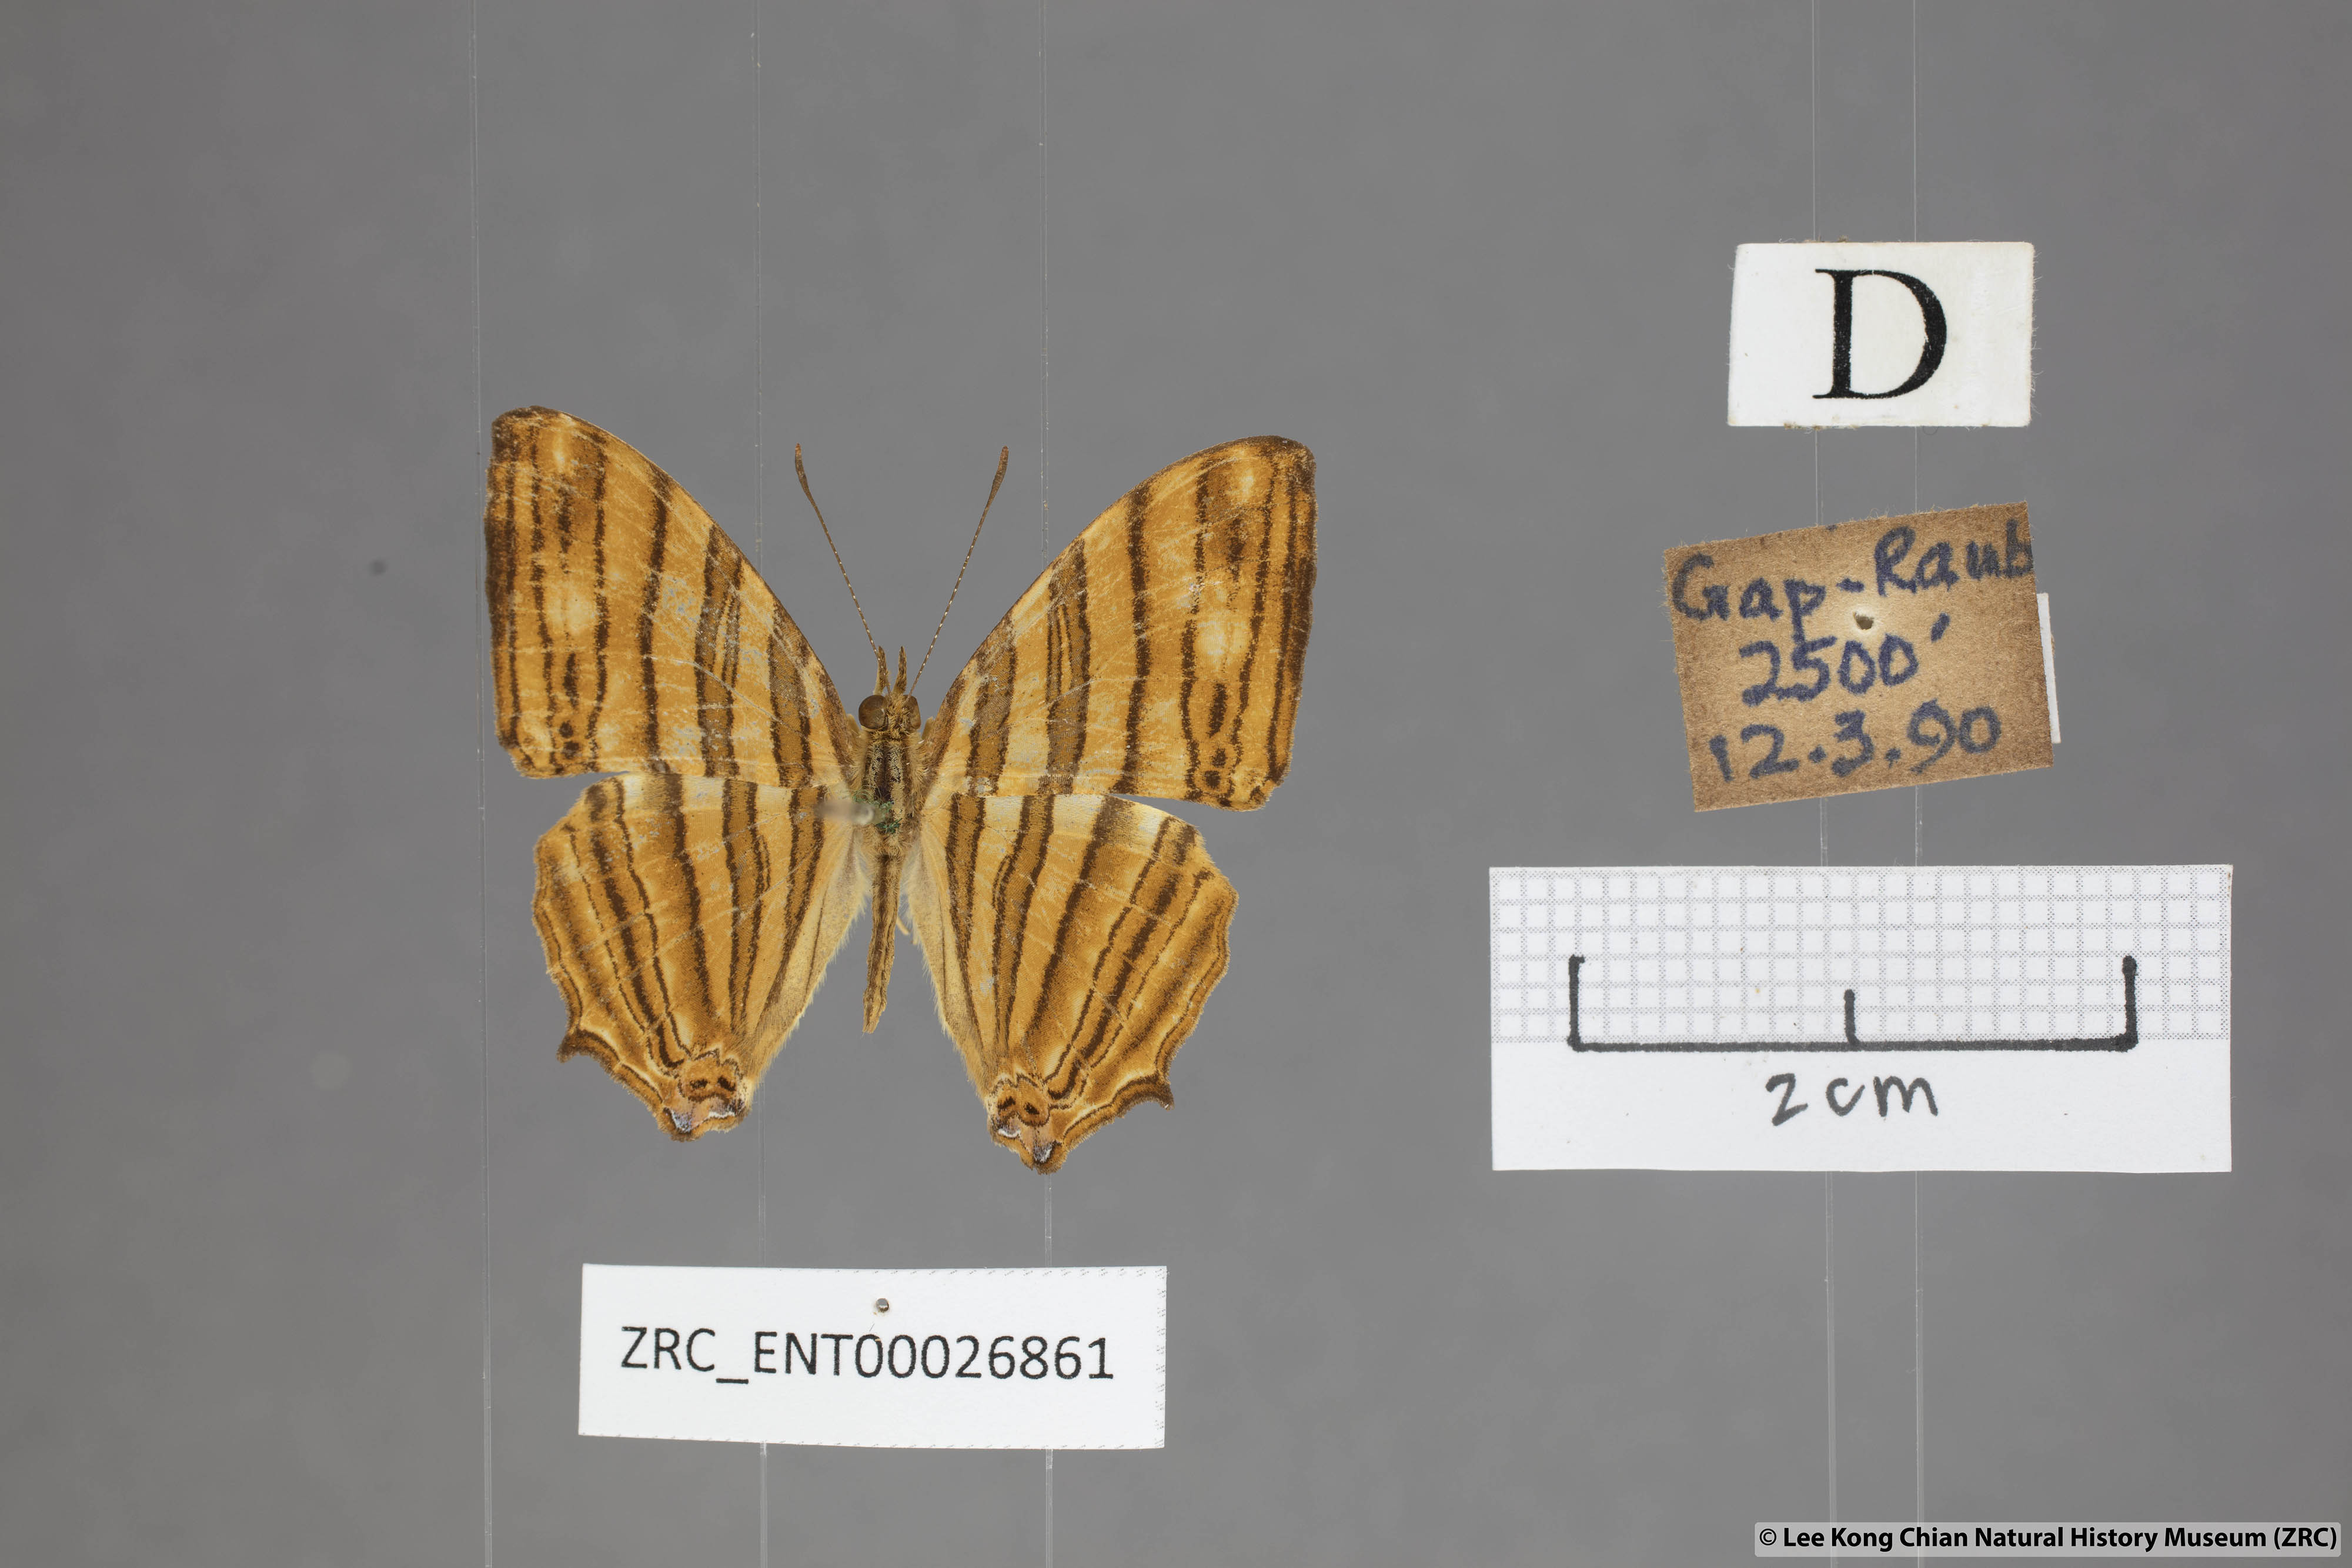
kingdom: Animalia
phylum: Arthropoda
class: Insecta
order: Lepidoptera
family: Nymphalidae
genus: Chersonesia
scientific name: Chersonesia risa
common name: Common maplet
